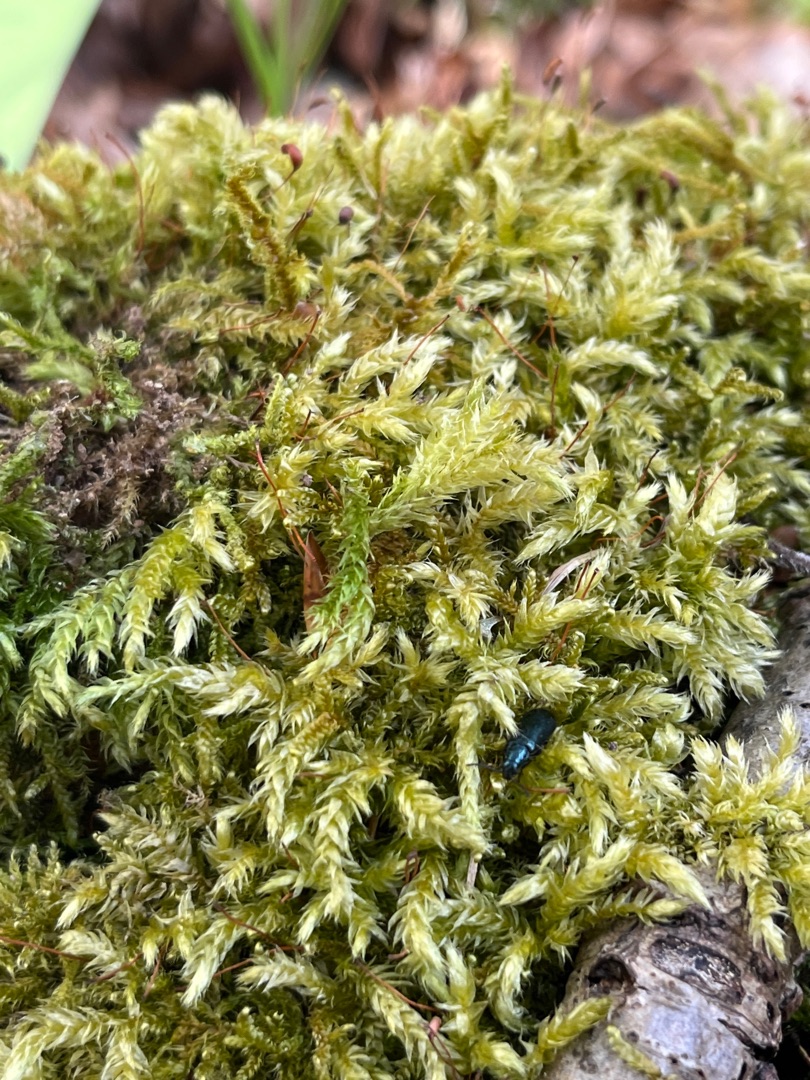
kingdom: Plantae
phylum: Bryophyta
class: Bryopsida
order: Hypnales
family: Brachytheciaceae
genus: Brachythecium
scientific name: Brachythecium rutabulum
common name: Almindelig kortkapsel
